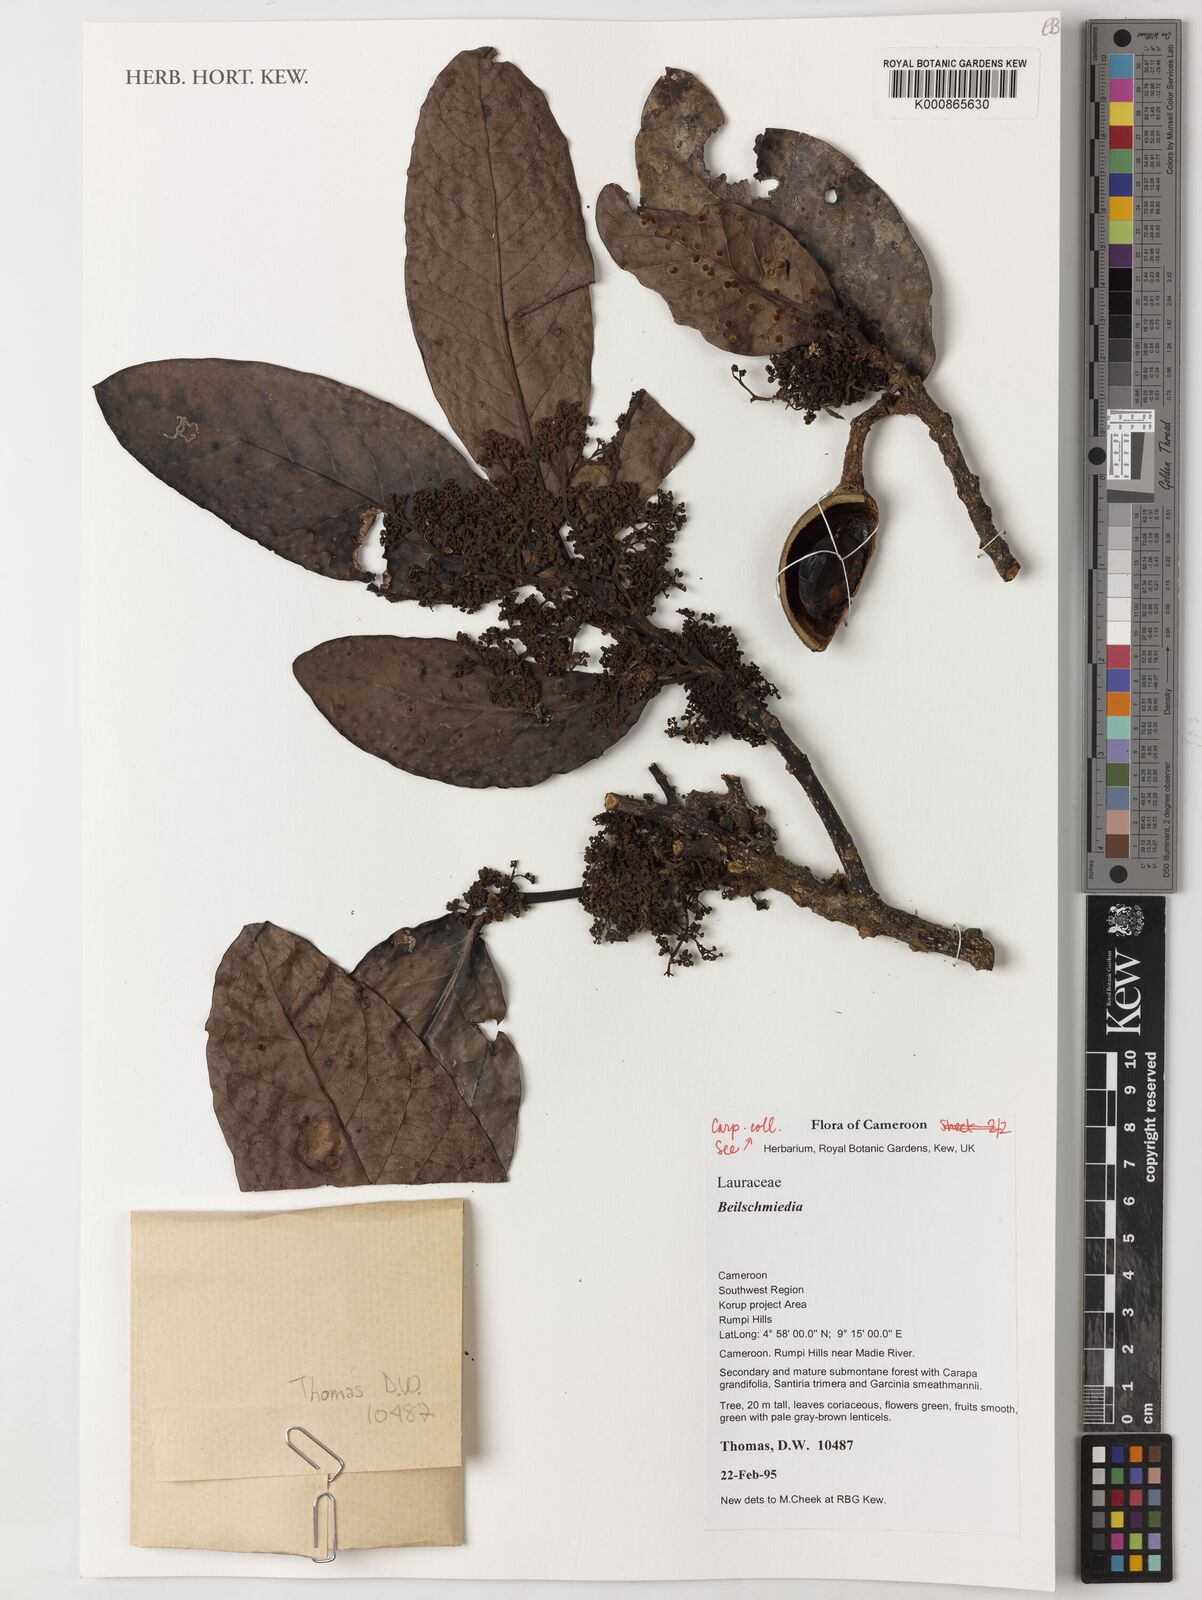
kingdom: Plantae
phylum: Tracheophyta
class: Magnoliopsida
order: Laurales
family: Lauraceae
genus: Beilschmiedia
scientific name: Beilschmiedia
